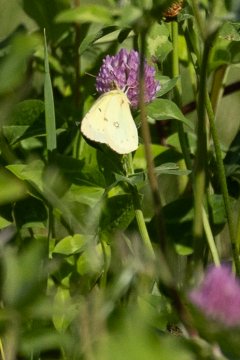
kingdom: Animalia
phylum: Arthropoda
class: Insecta
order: Lepidoptera
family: Pieridae
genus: Colias
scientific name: Colias philodice
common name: Clouded Sulphur
